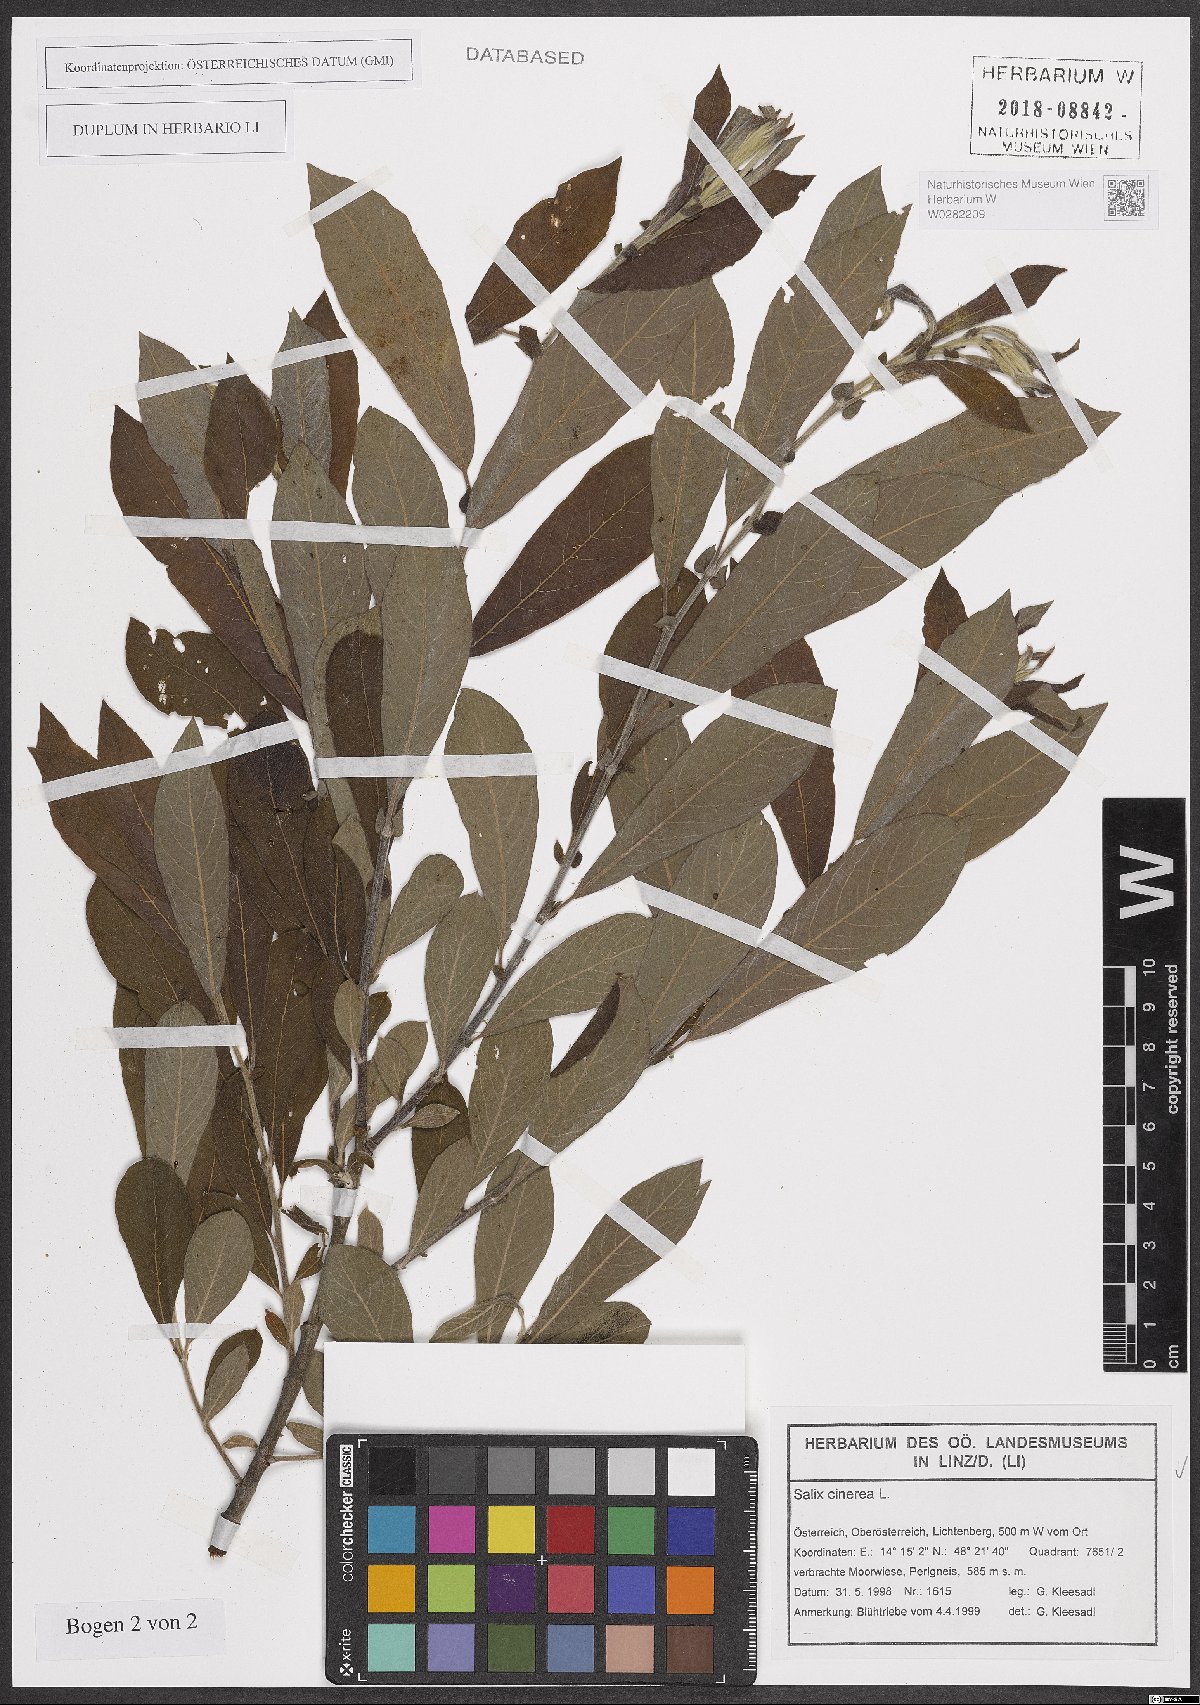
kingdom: Plantae
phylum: Tracheophyta
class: Magnoliopsida
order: Malpighiales
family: Salicaceae
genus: Salix
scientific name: Salix cinerea
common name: Common sallow
